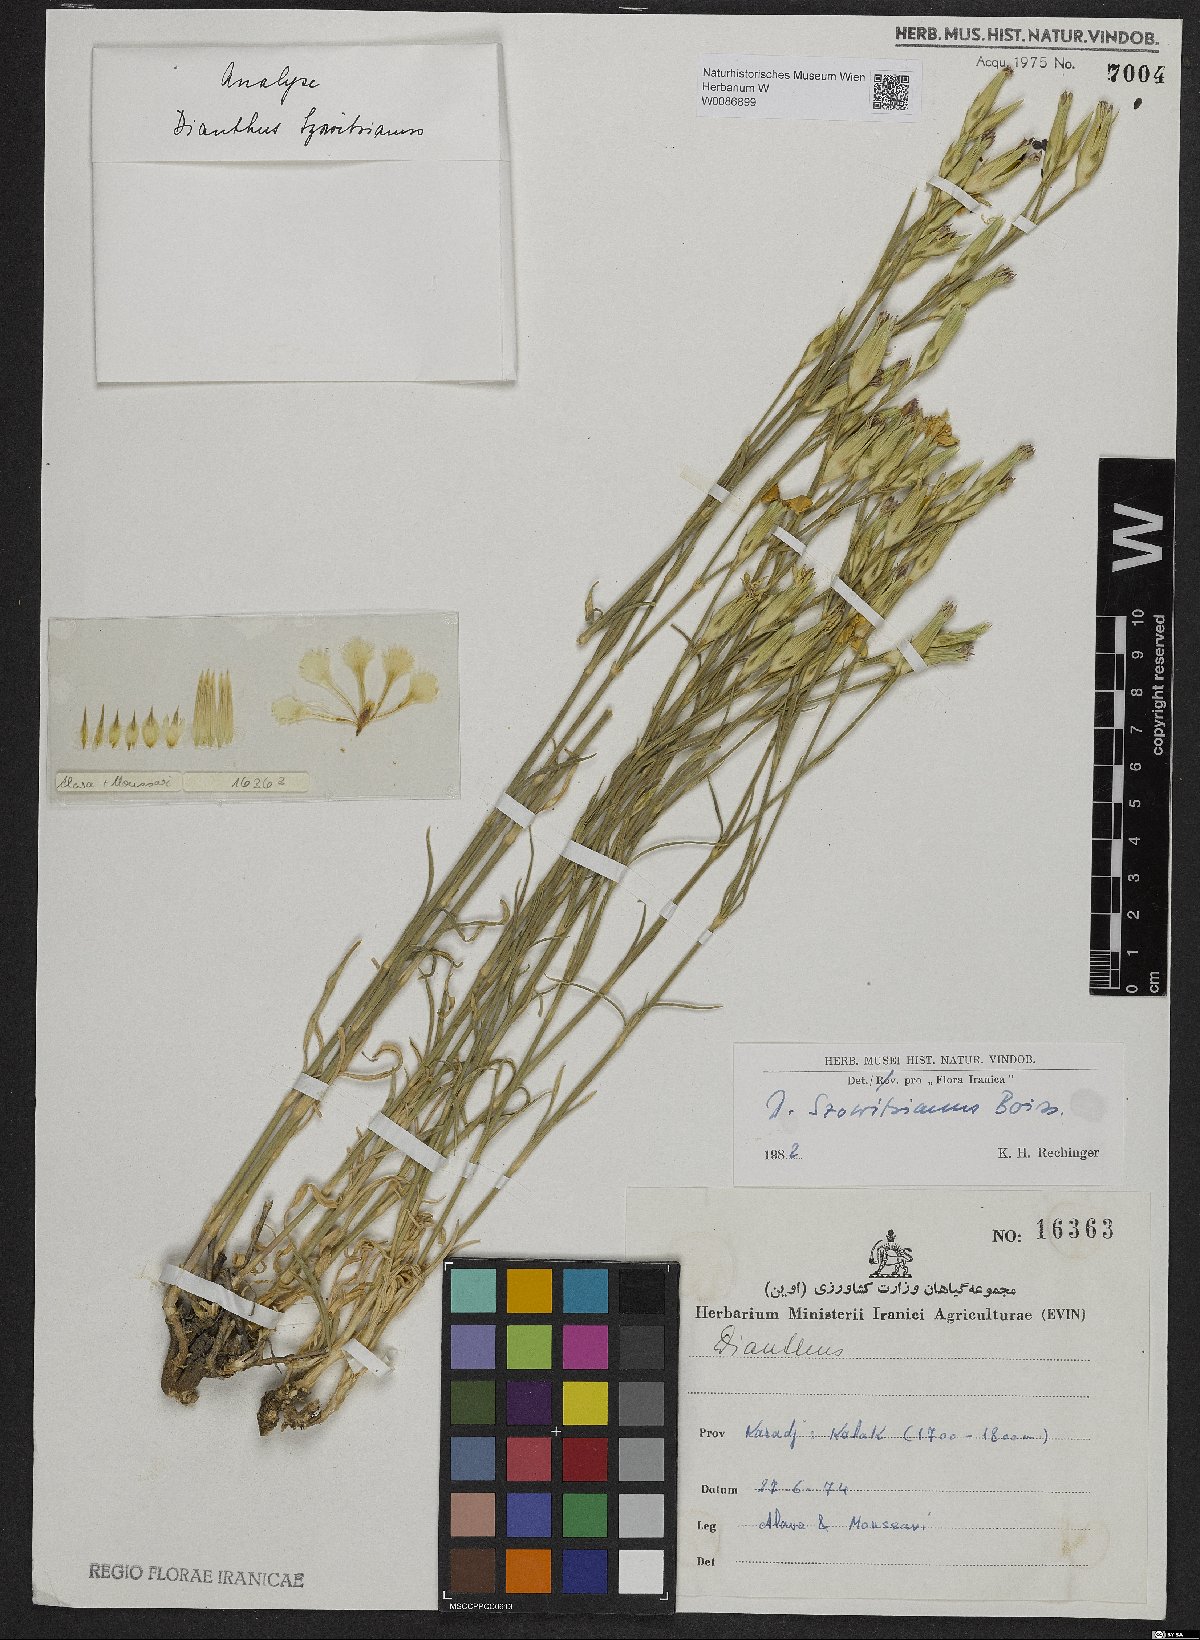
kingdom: Plantae
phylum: Tracheophyta
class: Magnoliopsida
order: Lamiales
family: Lamiaceae
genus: Ajuga
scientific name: Ajuga chamaecistus
